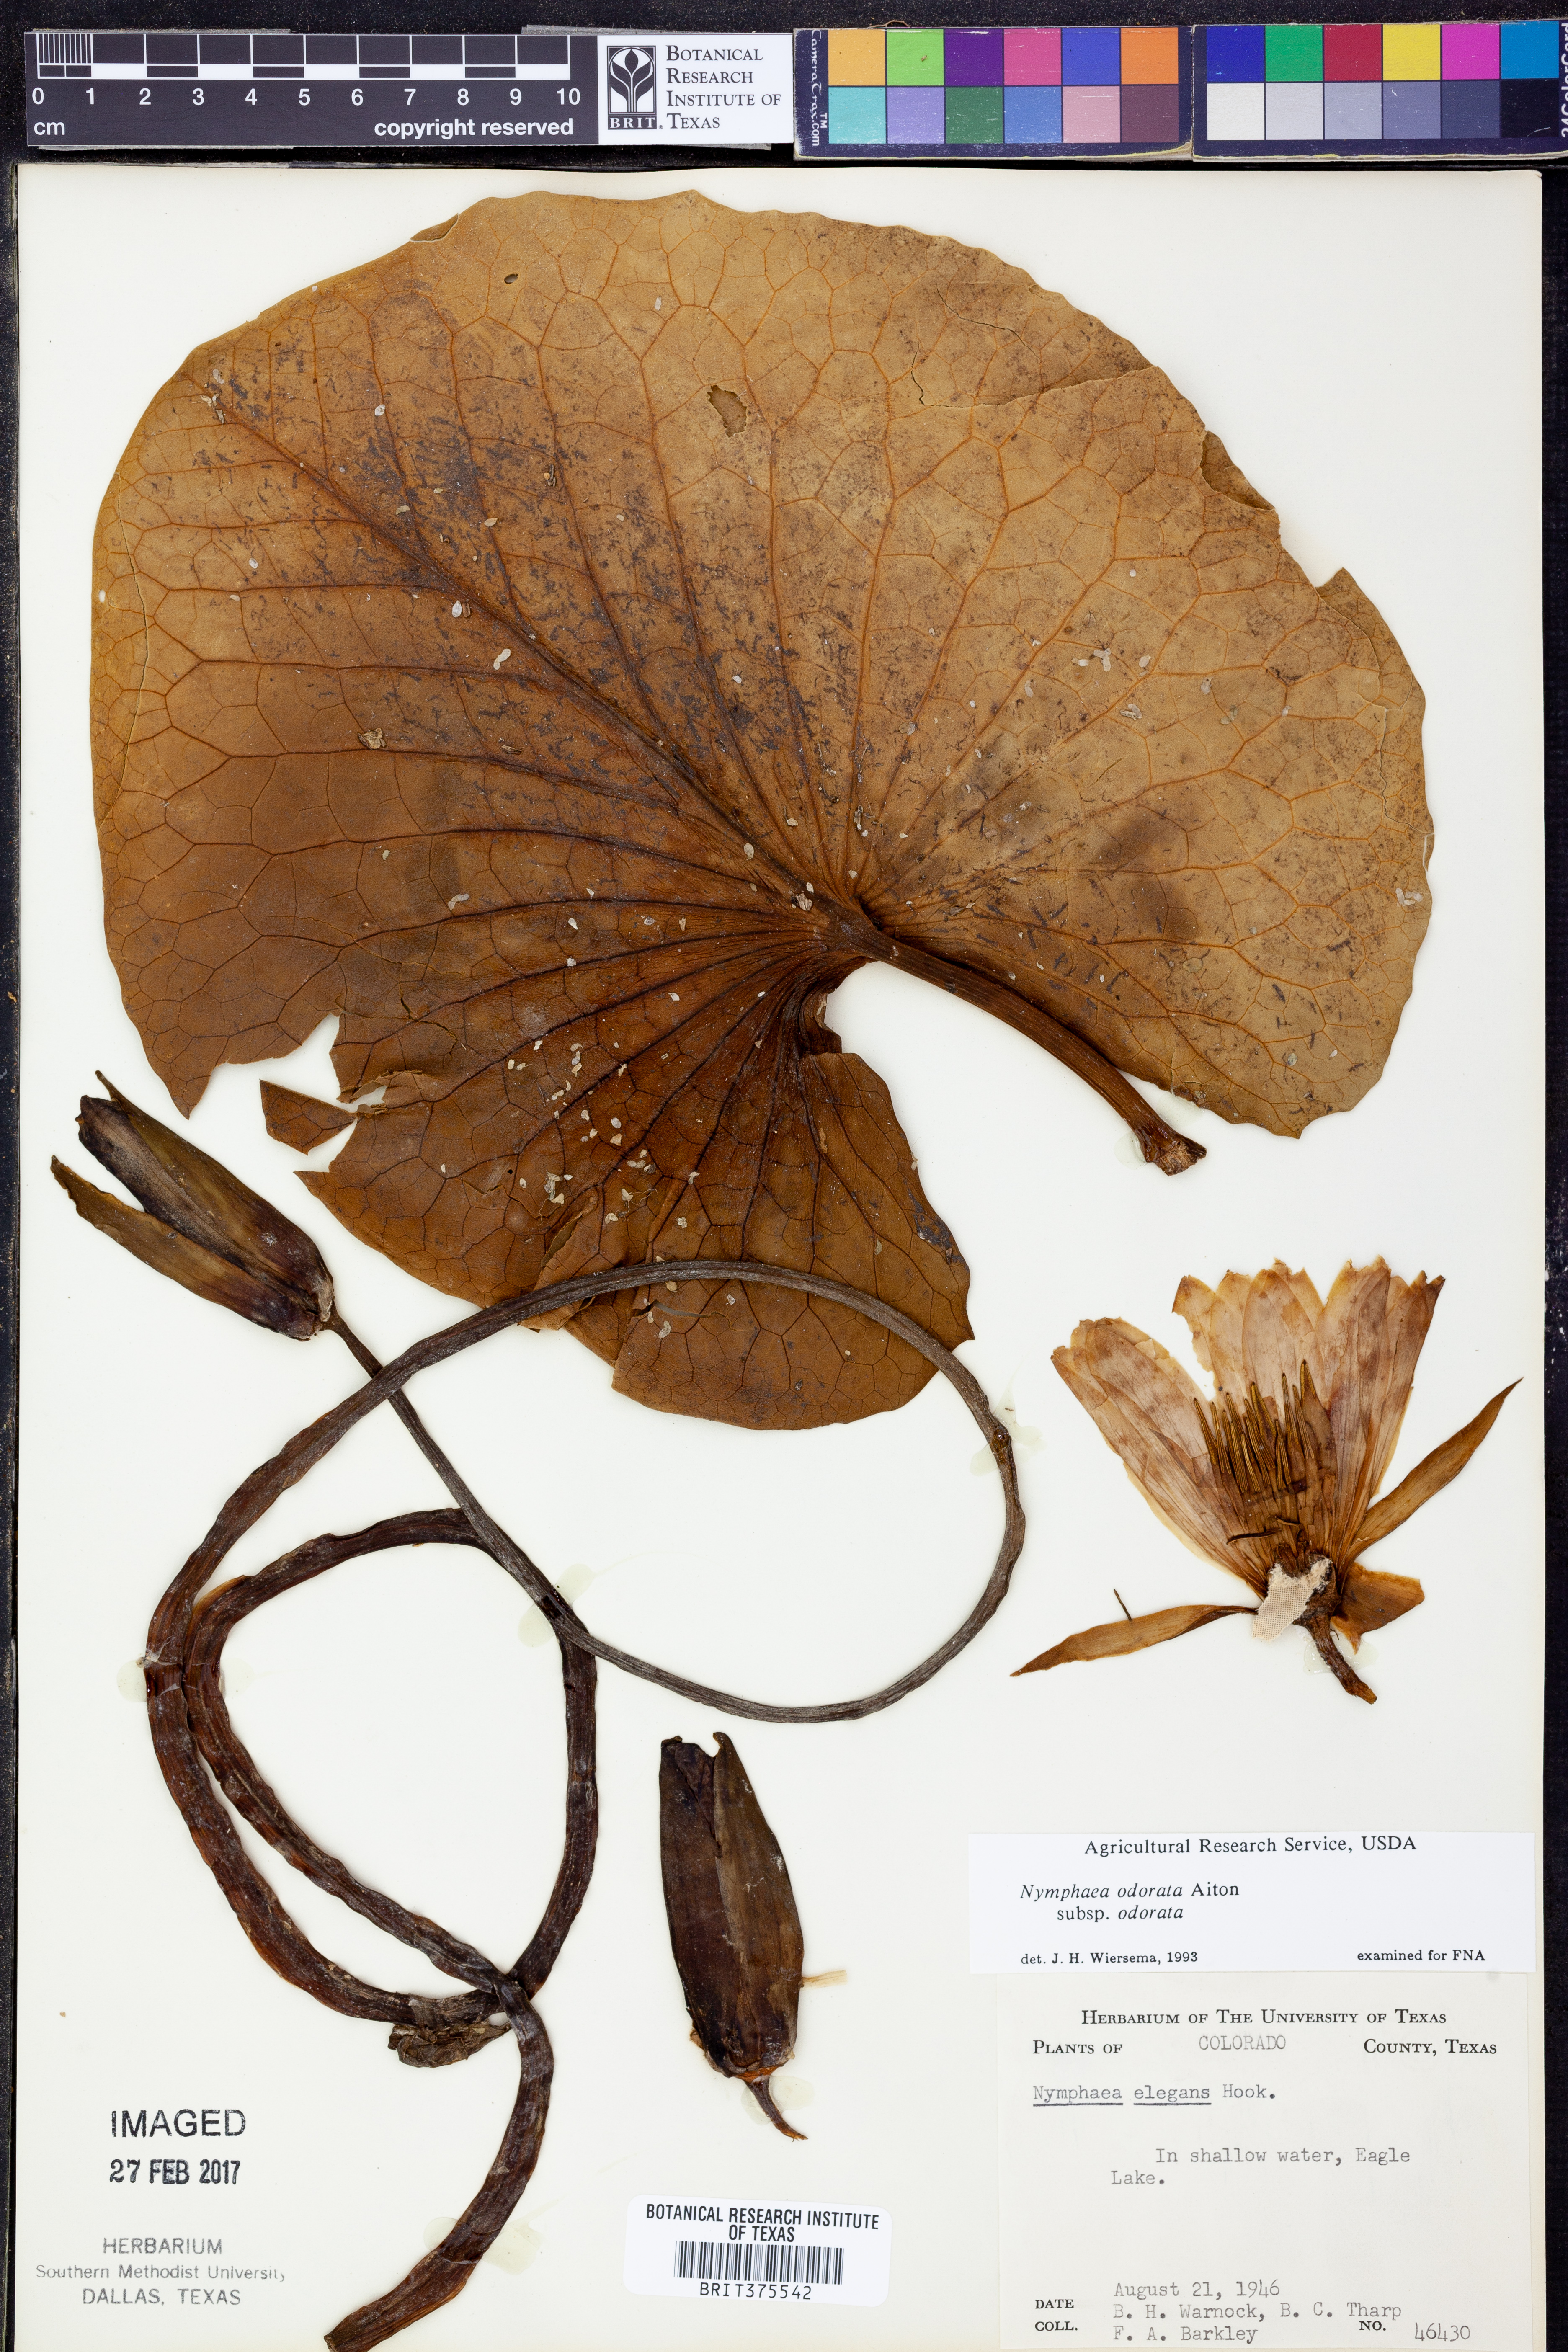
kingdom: Plantae
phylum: Tracheophyta
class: Magnoliopsida
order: Nymphaeales
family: Nymphaeaceae
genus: Nymphaea
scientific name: Nymphaea odorata
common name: Fragrant water-lily
